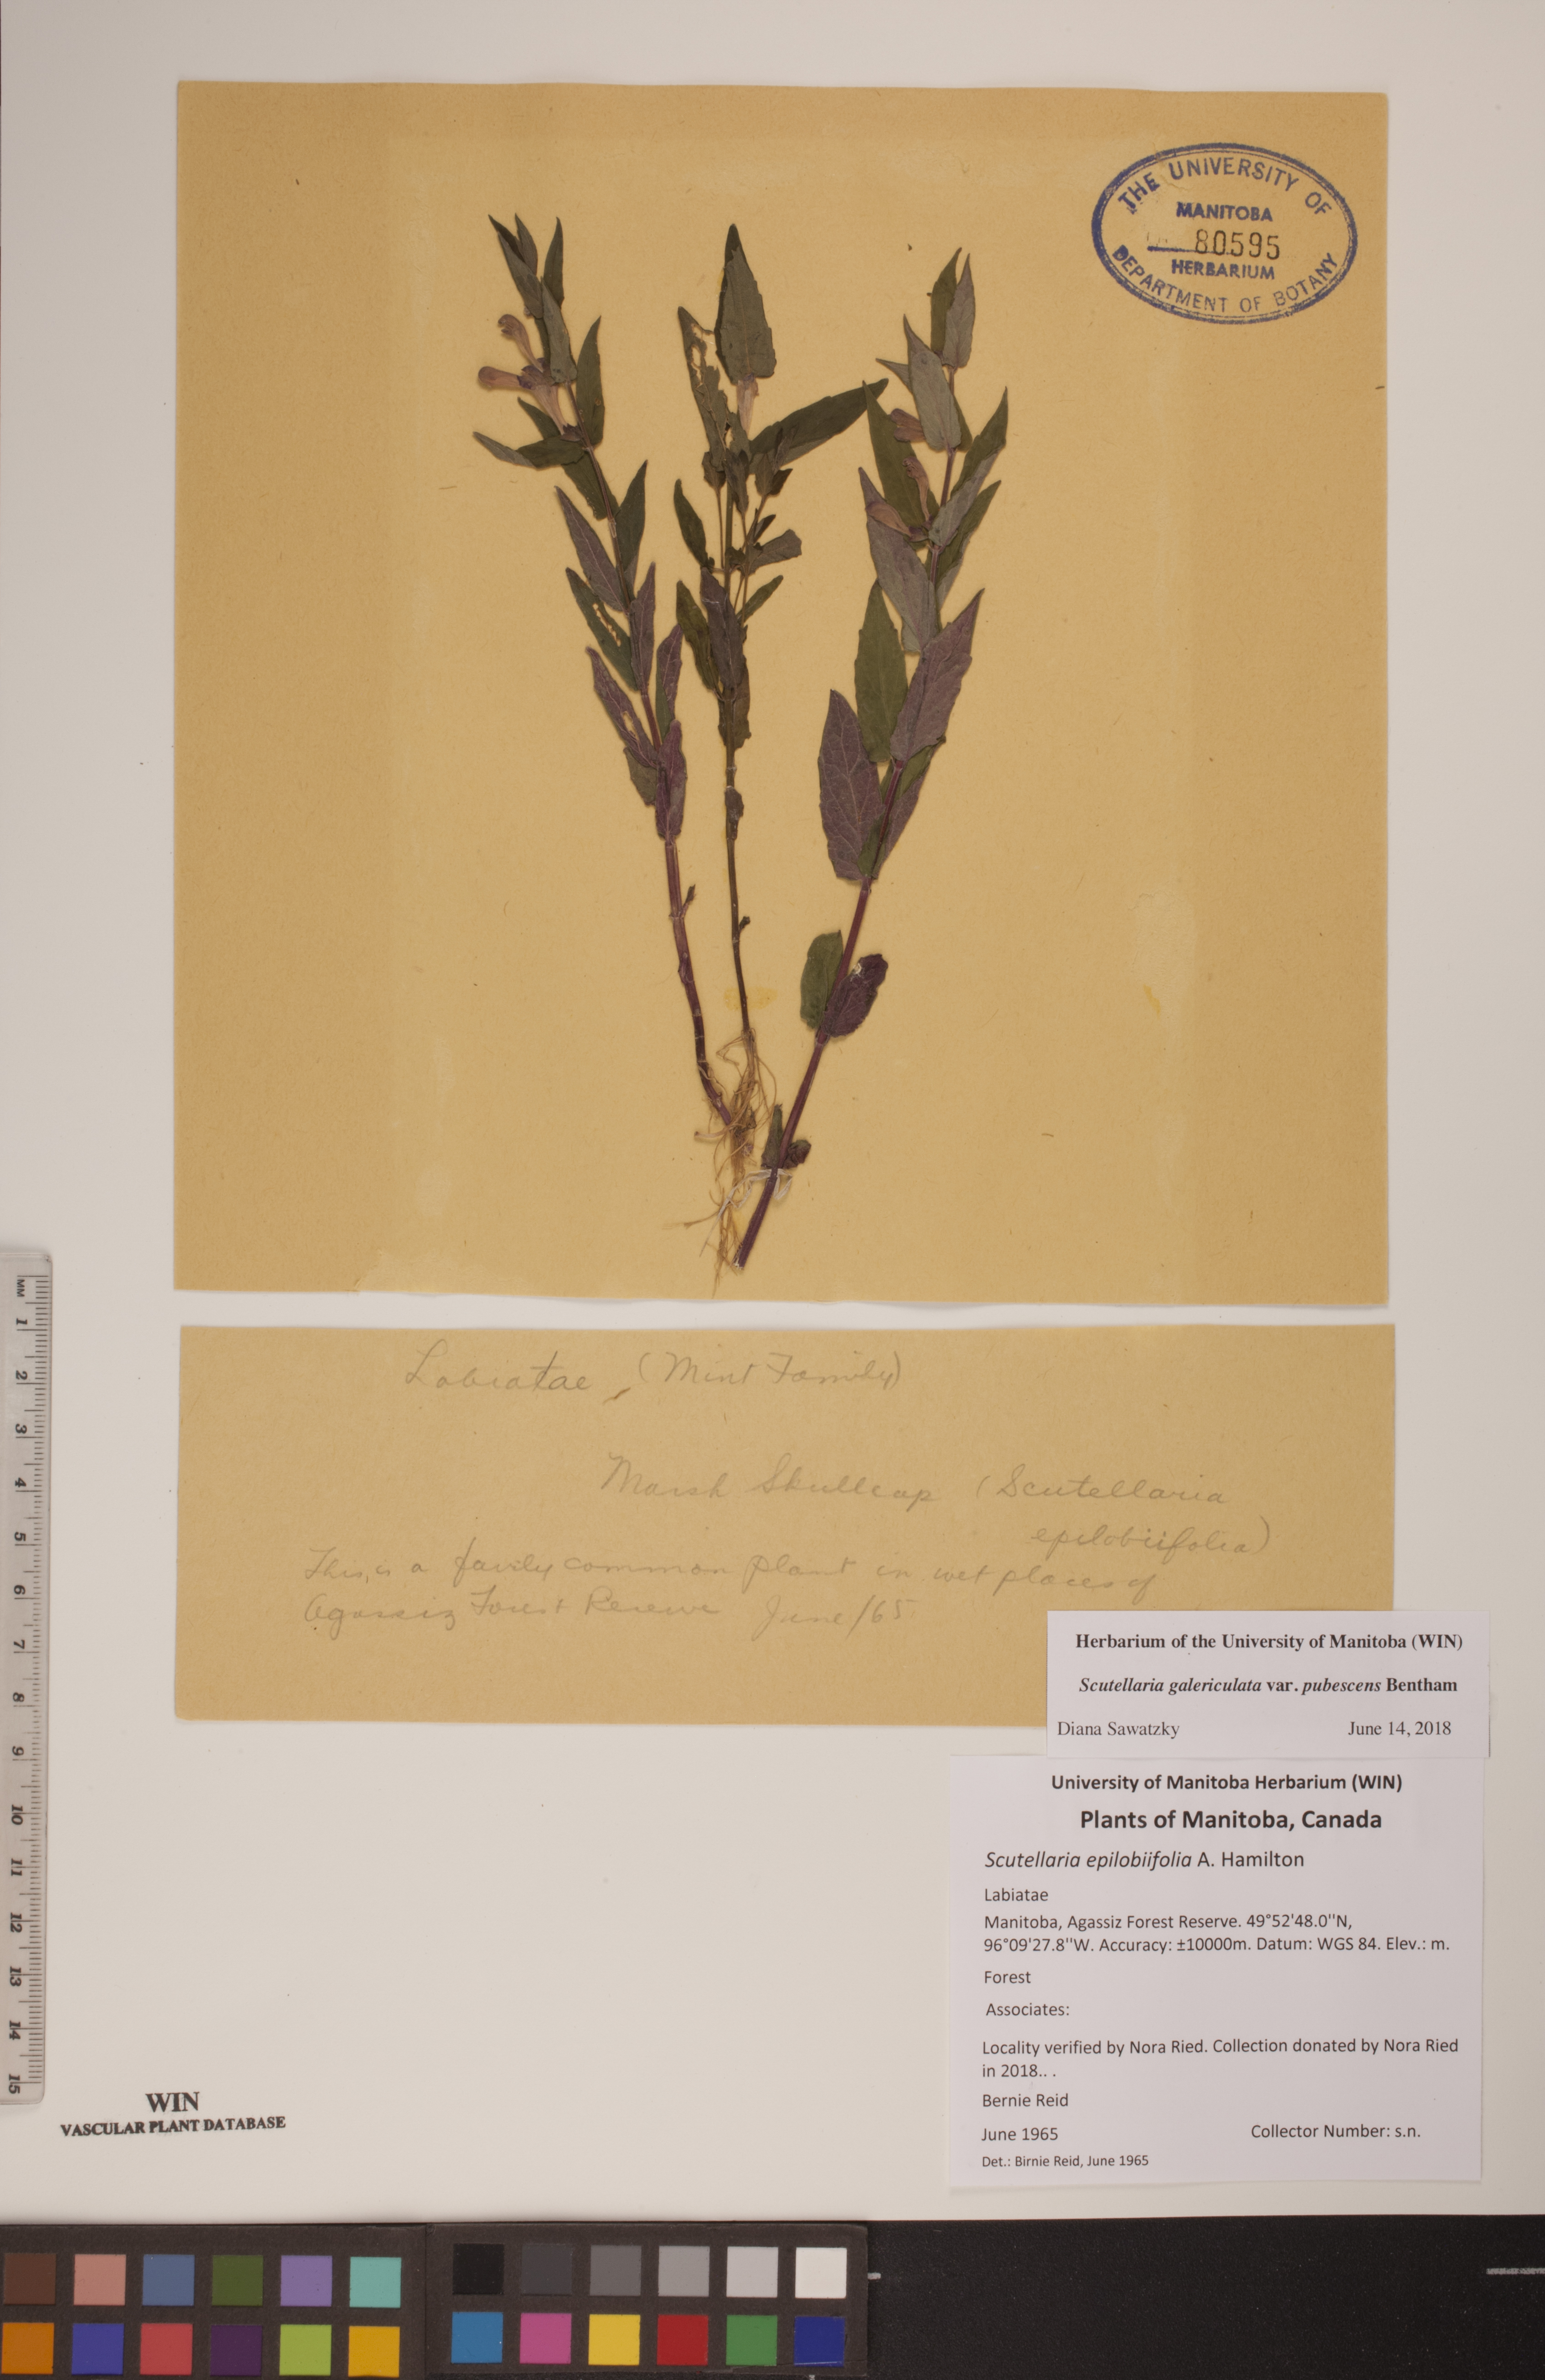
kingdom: Plantae
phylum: Tracheophyta
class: Magnoliopsida
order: Lamiales
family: Lamiaceae
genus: Scutellaria
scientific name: Scutellaria nicholsonii
